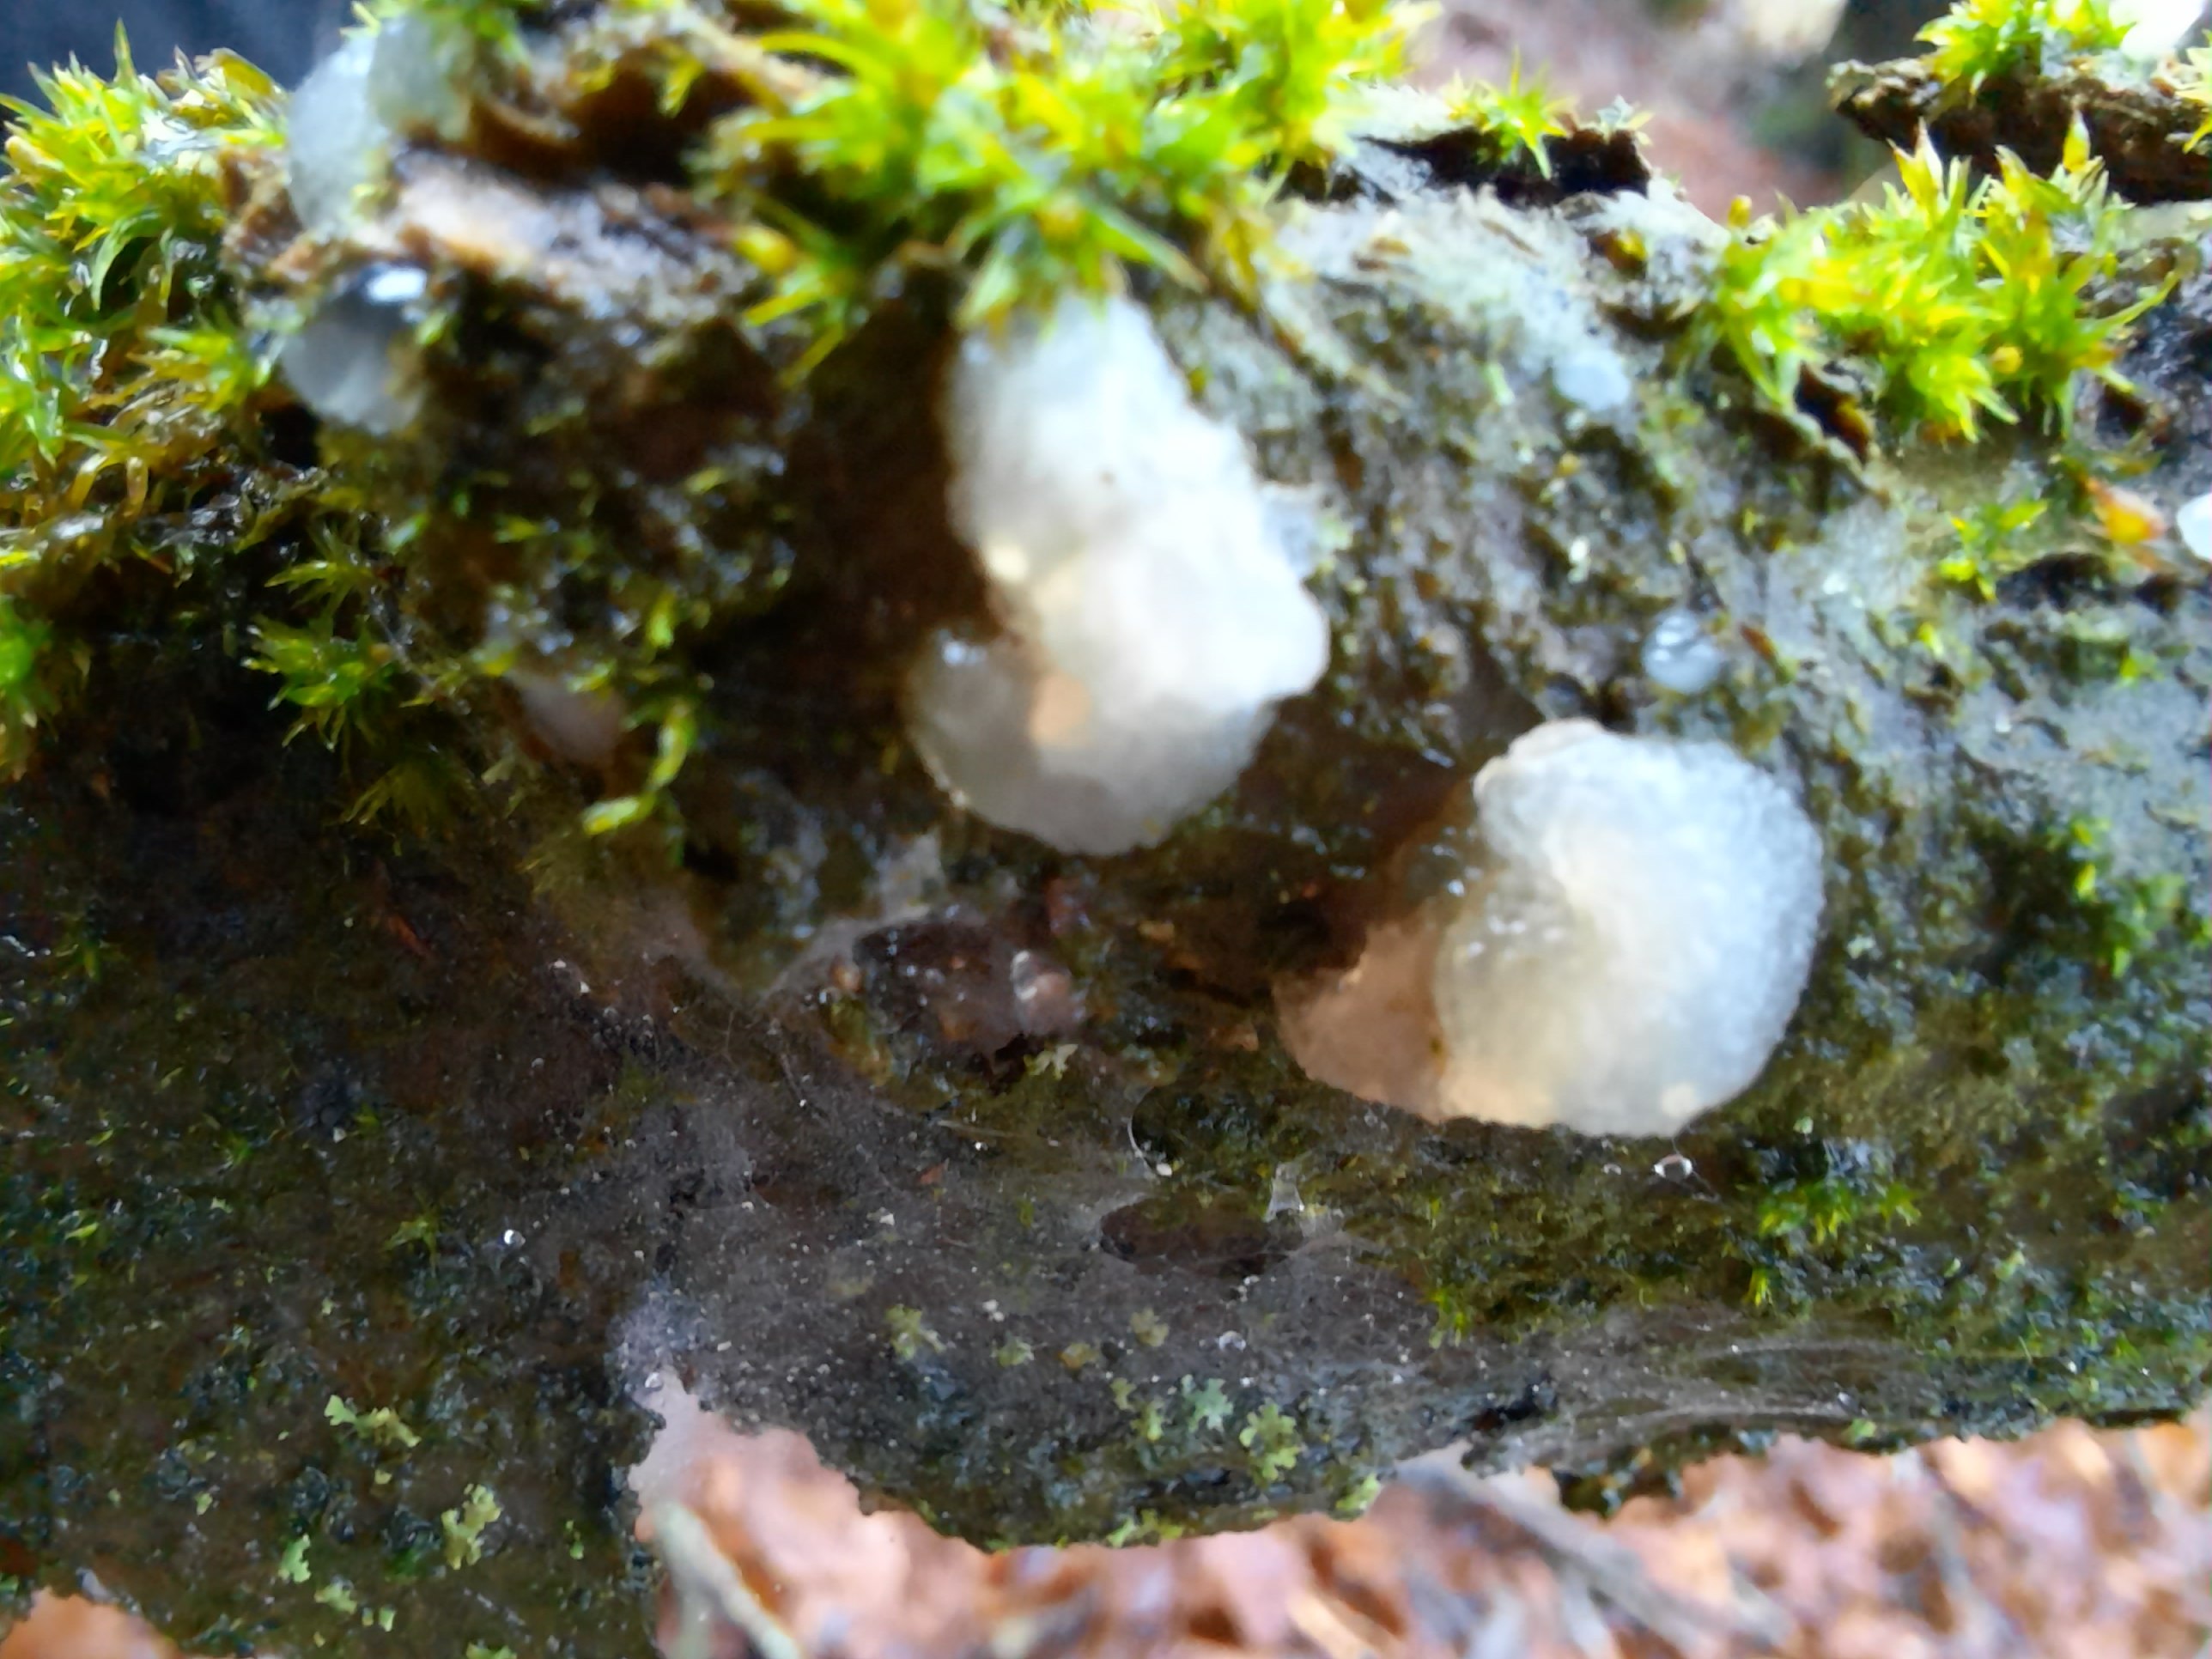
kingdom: Fungi
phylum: Basidiomycota
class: Agaricomycetes
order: Auriculariales
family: Hyaloriaceae
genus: Myxarium
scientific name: Myxarium nucleatum
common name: klar bævretop
